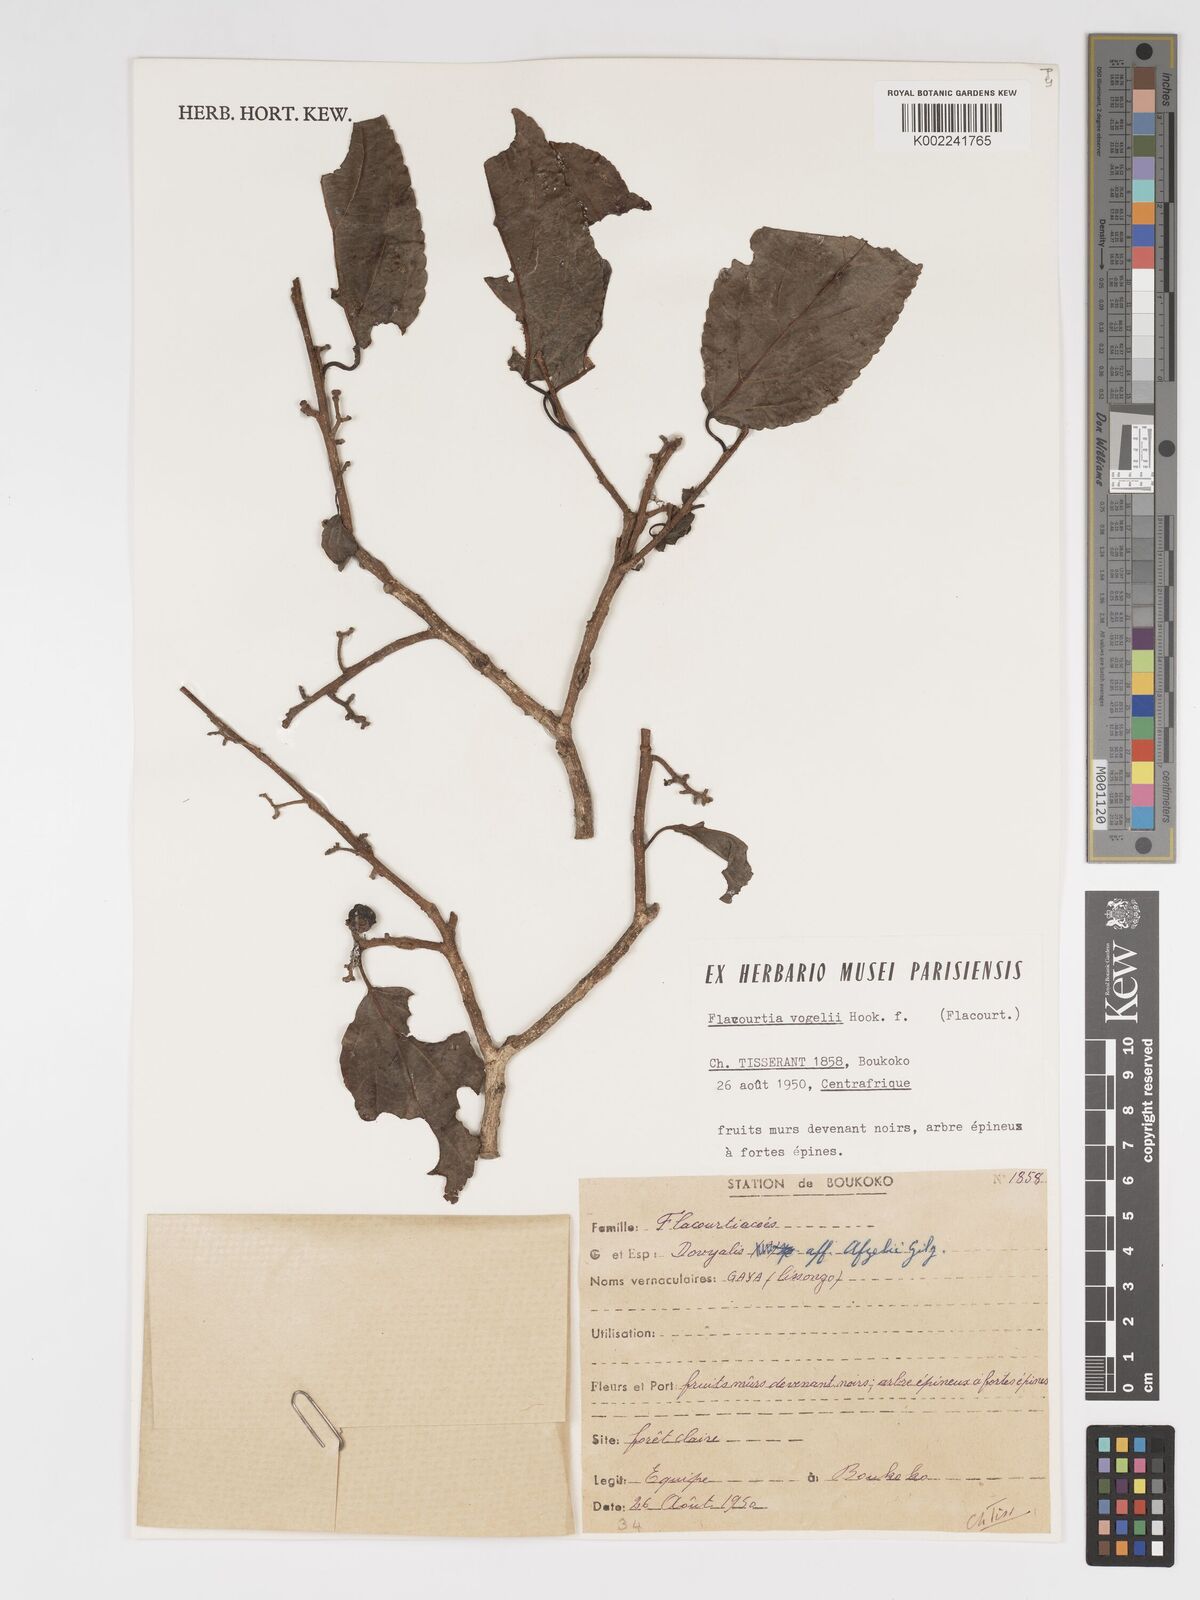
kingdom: Plantae
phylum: Tracheophyta
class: Magnoliopsida
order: Malpighiales
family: Salicaceae
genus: Flacourtia
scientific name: Flacourtia vogelii
